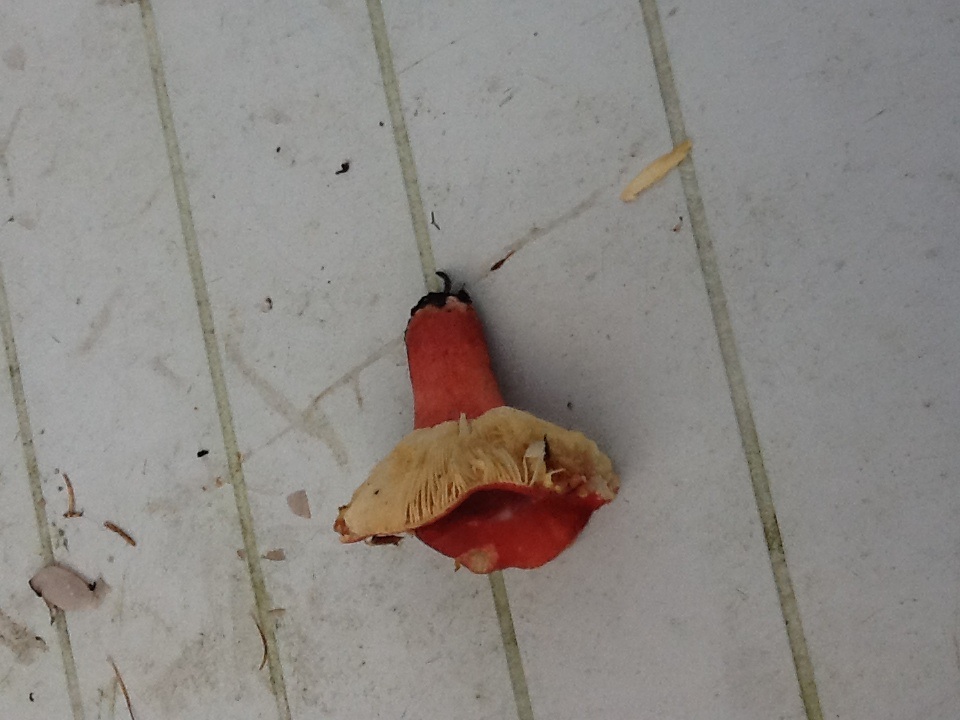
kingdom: Fungi
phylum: Basidiomycota
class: Agaricomycetes
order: Russulales
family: Russulaceae
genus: Russula
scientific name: Russula sanguinea
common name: blodrød skørhat
